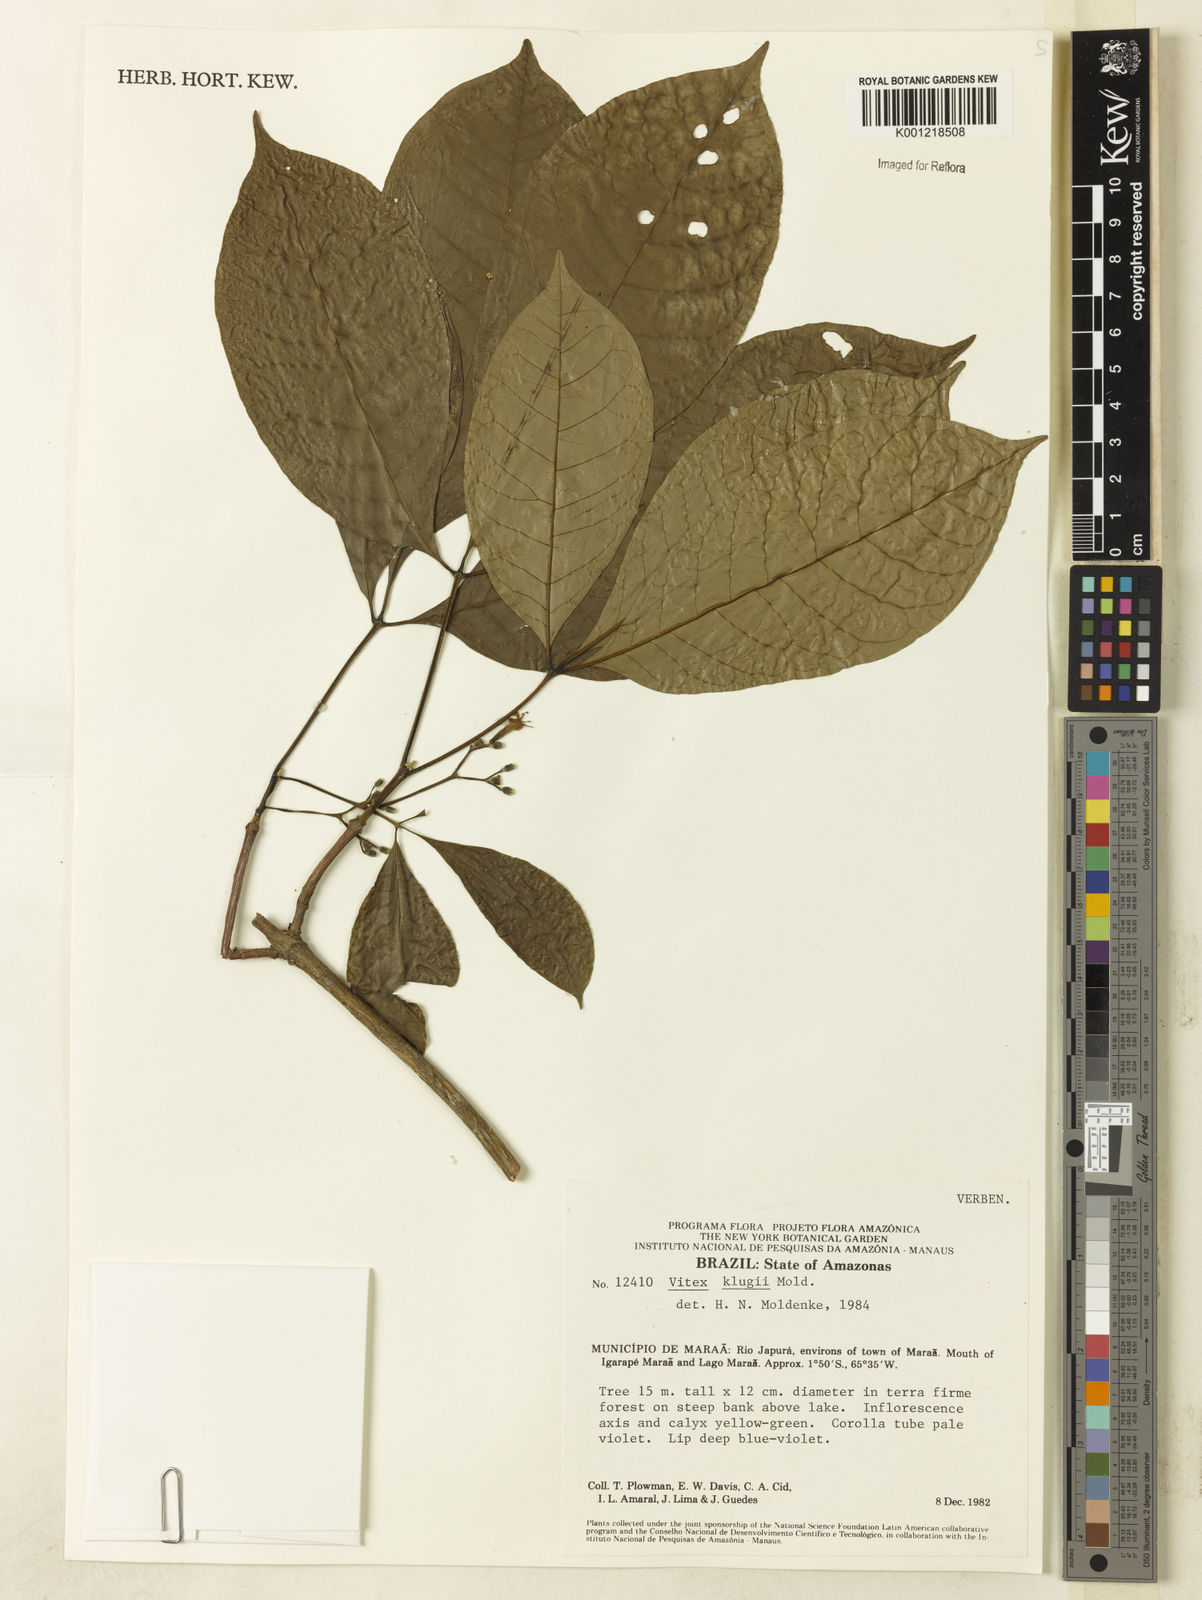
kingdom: Plantae
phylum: Tracheophyta
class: Magnoliopsida
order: Lamiales
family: Lamiaceae
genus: Vitex
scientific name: Vitex klugii
